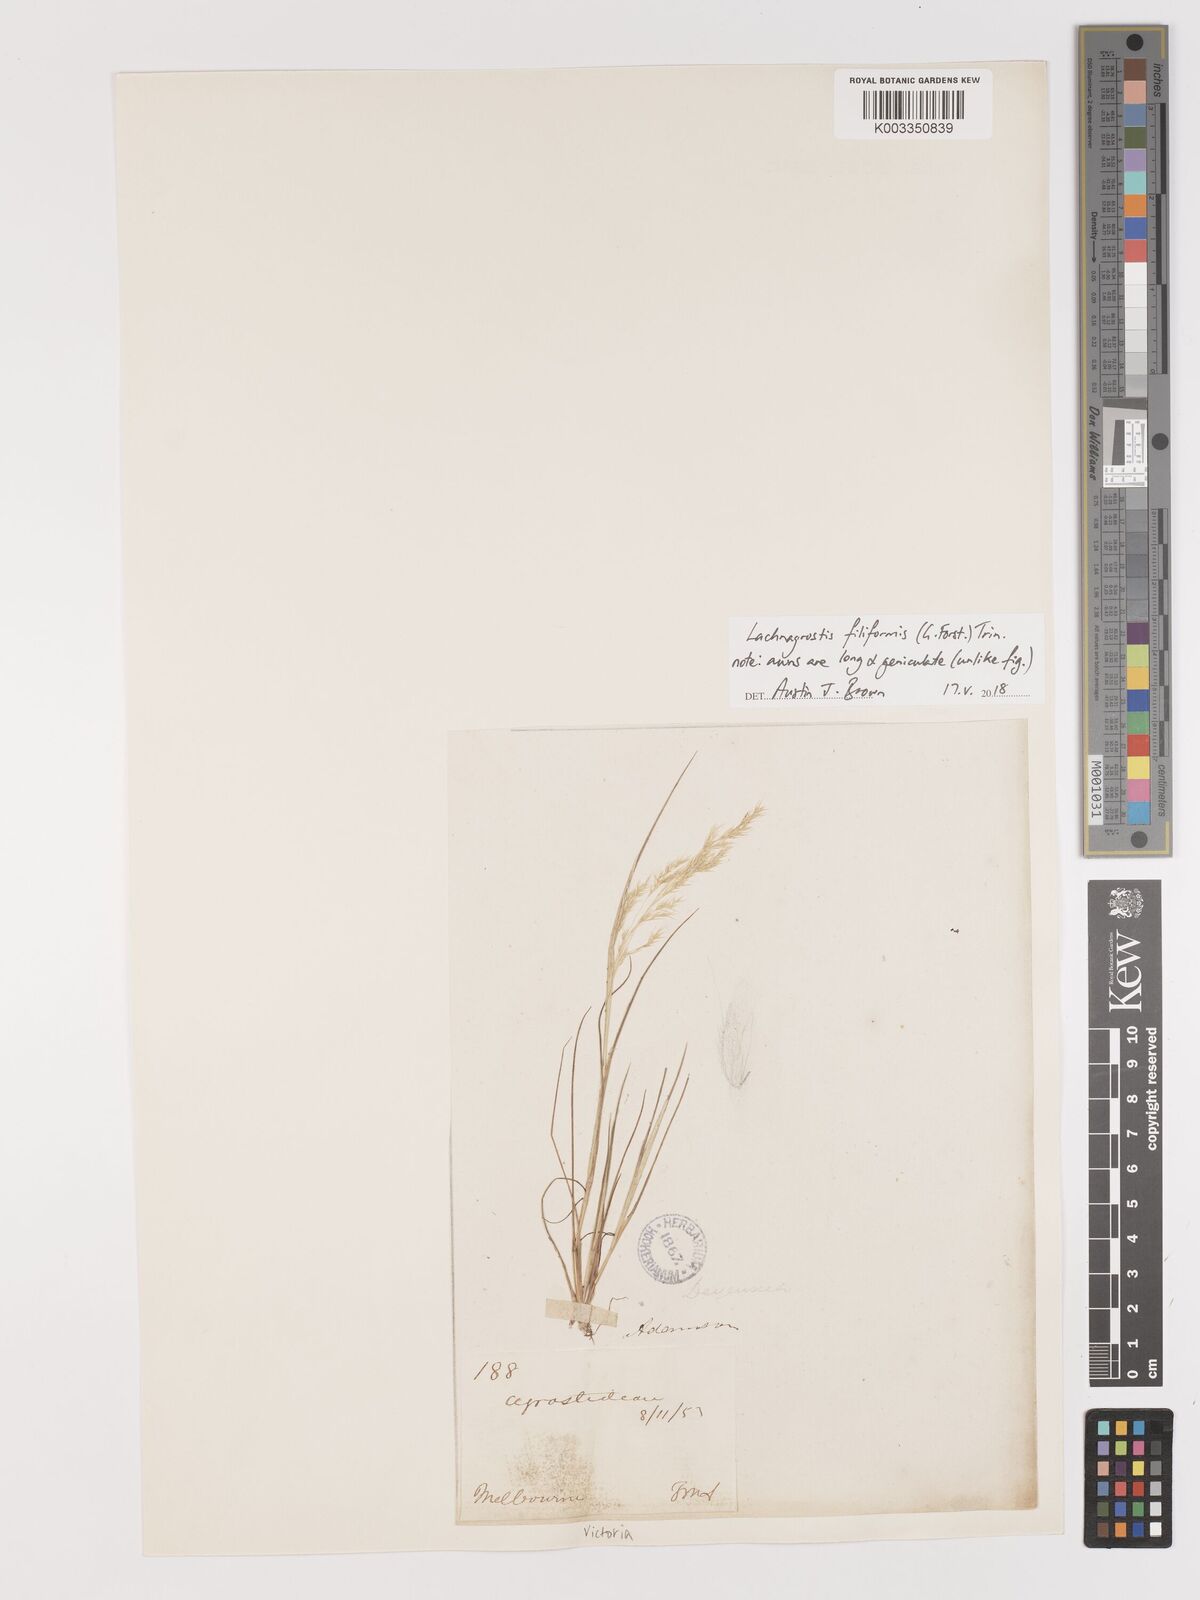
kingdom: Plantae
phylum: Tracheophyta
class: Liliopsida
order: Poales
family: Poaceae
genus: Lachnagrostis
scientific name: Lachnagrostis filiformis
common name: Bentgrass
